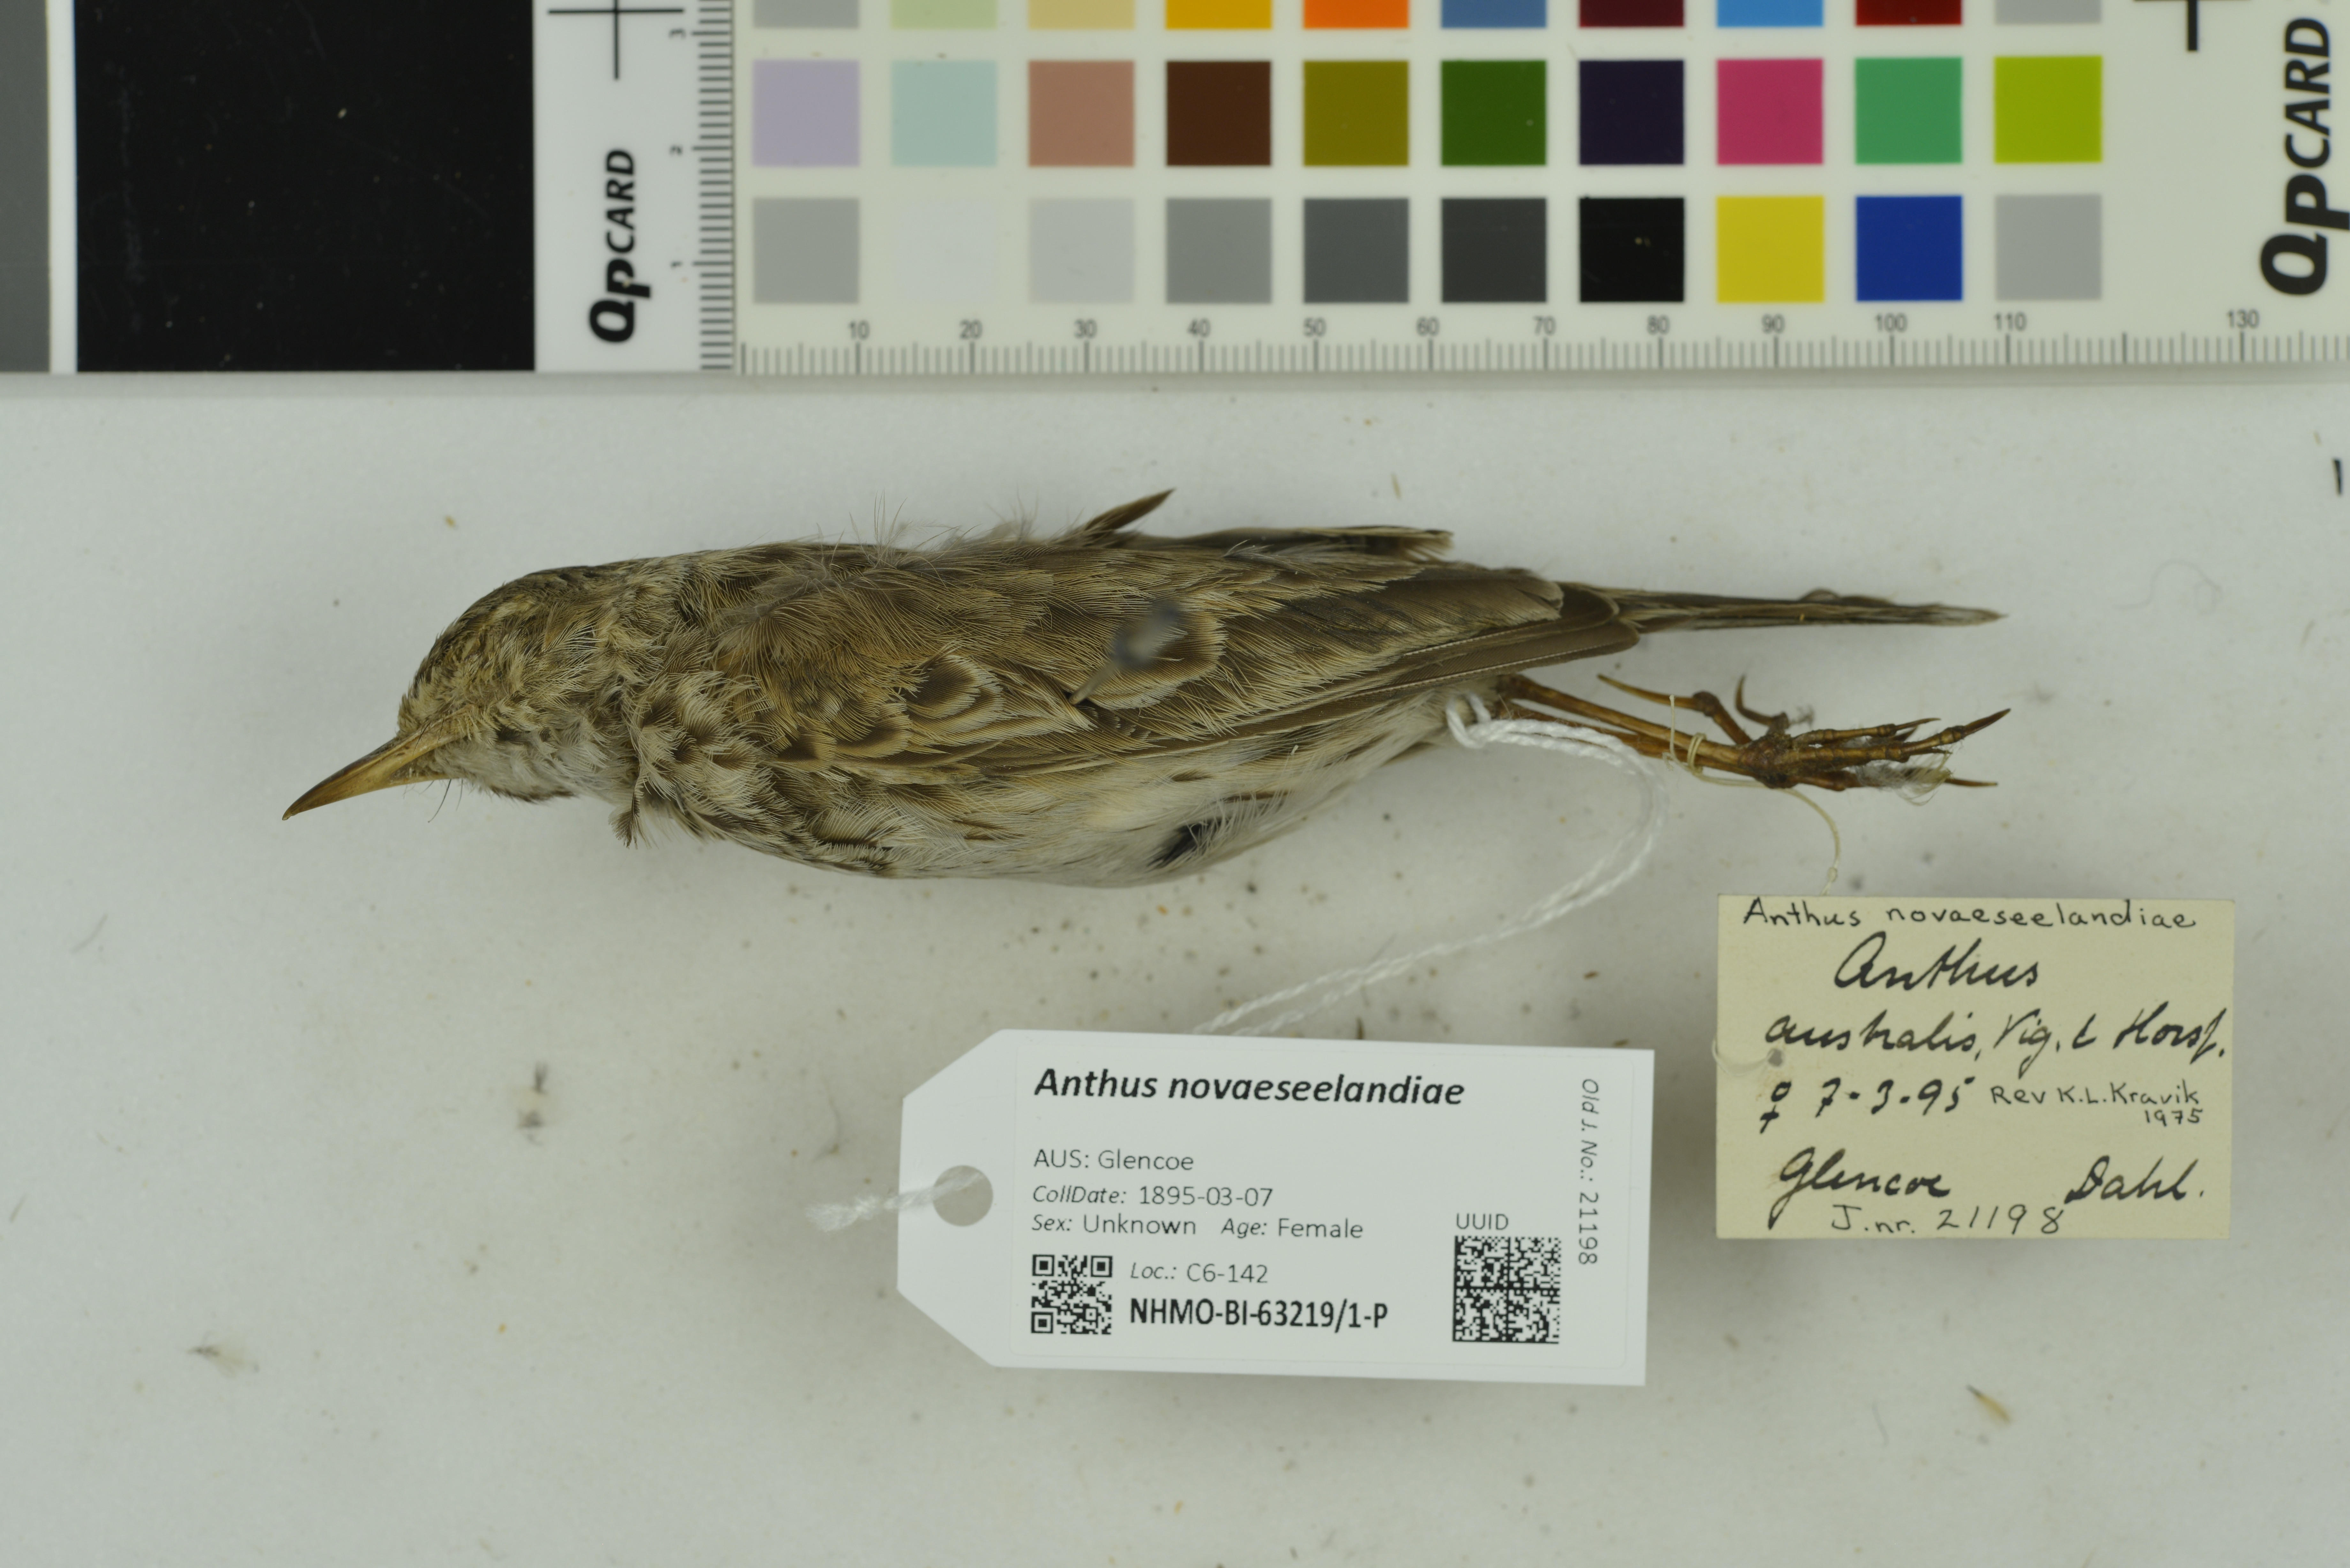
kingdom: Animalia
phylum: Chordata
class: Aves
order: Passeriformes
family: Motacillidae
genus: Anthus
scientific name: Anthus novaeseelandiae
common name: New zealand pipit
